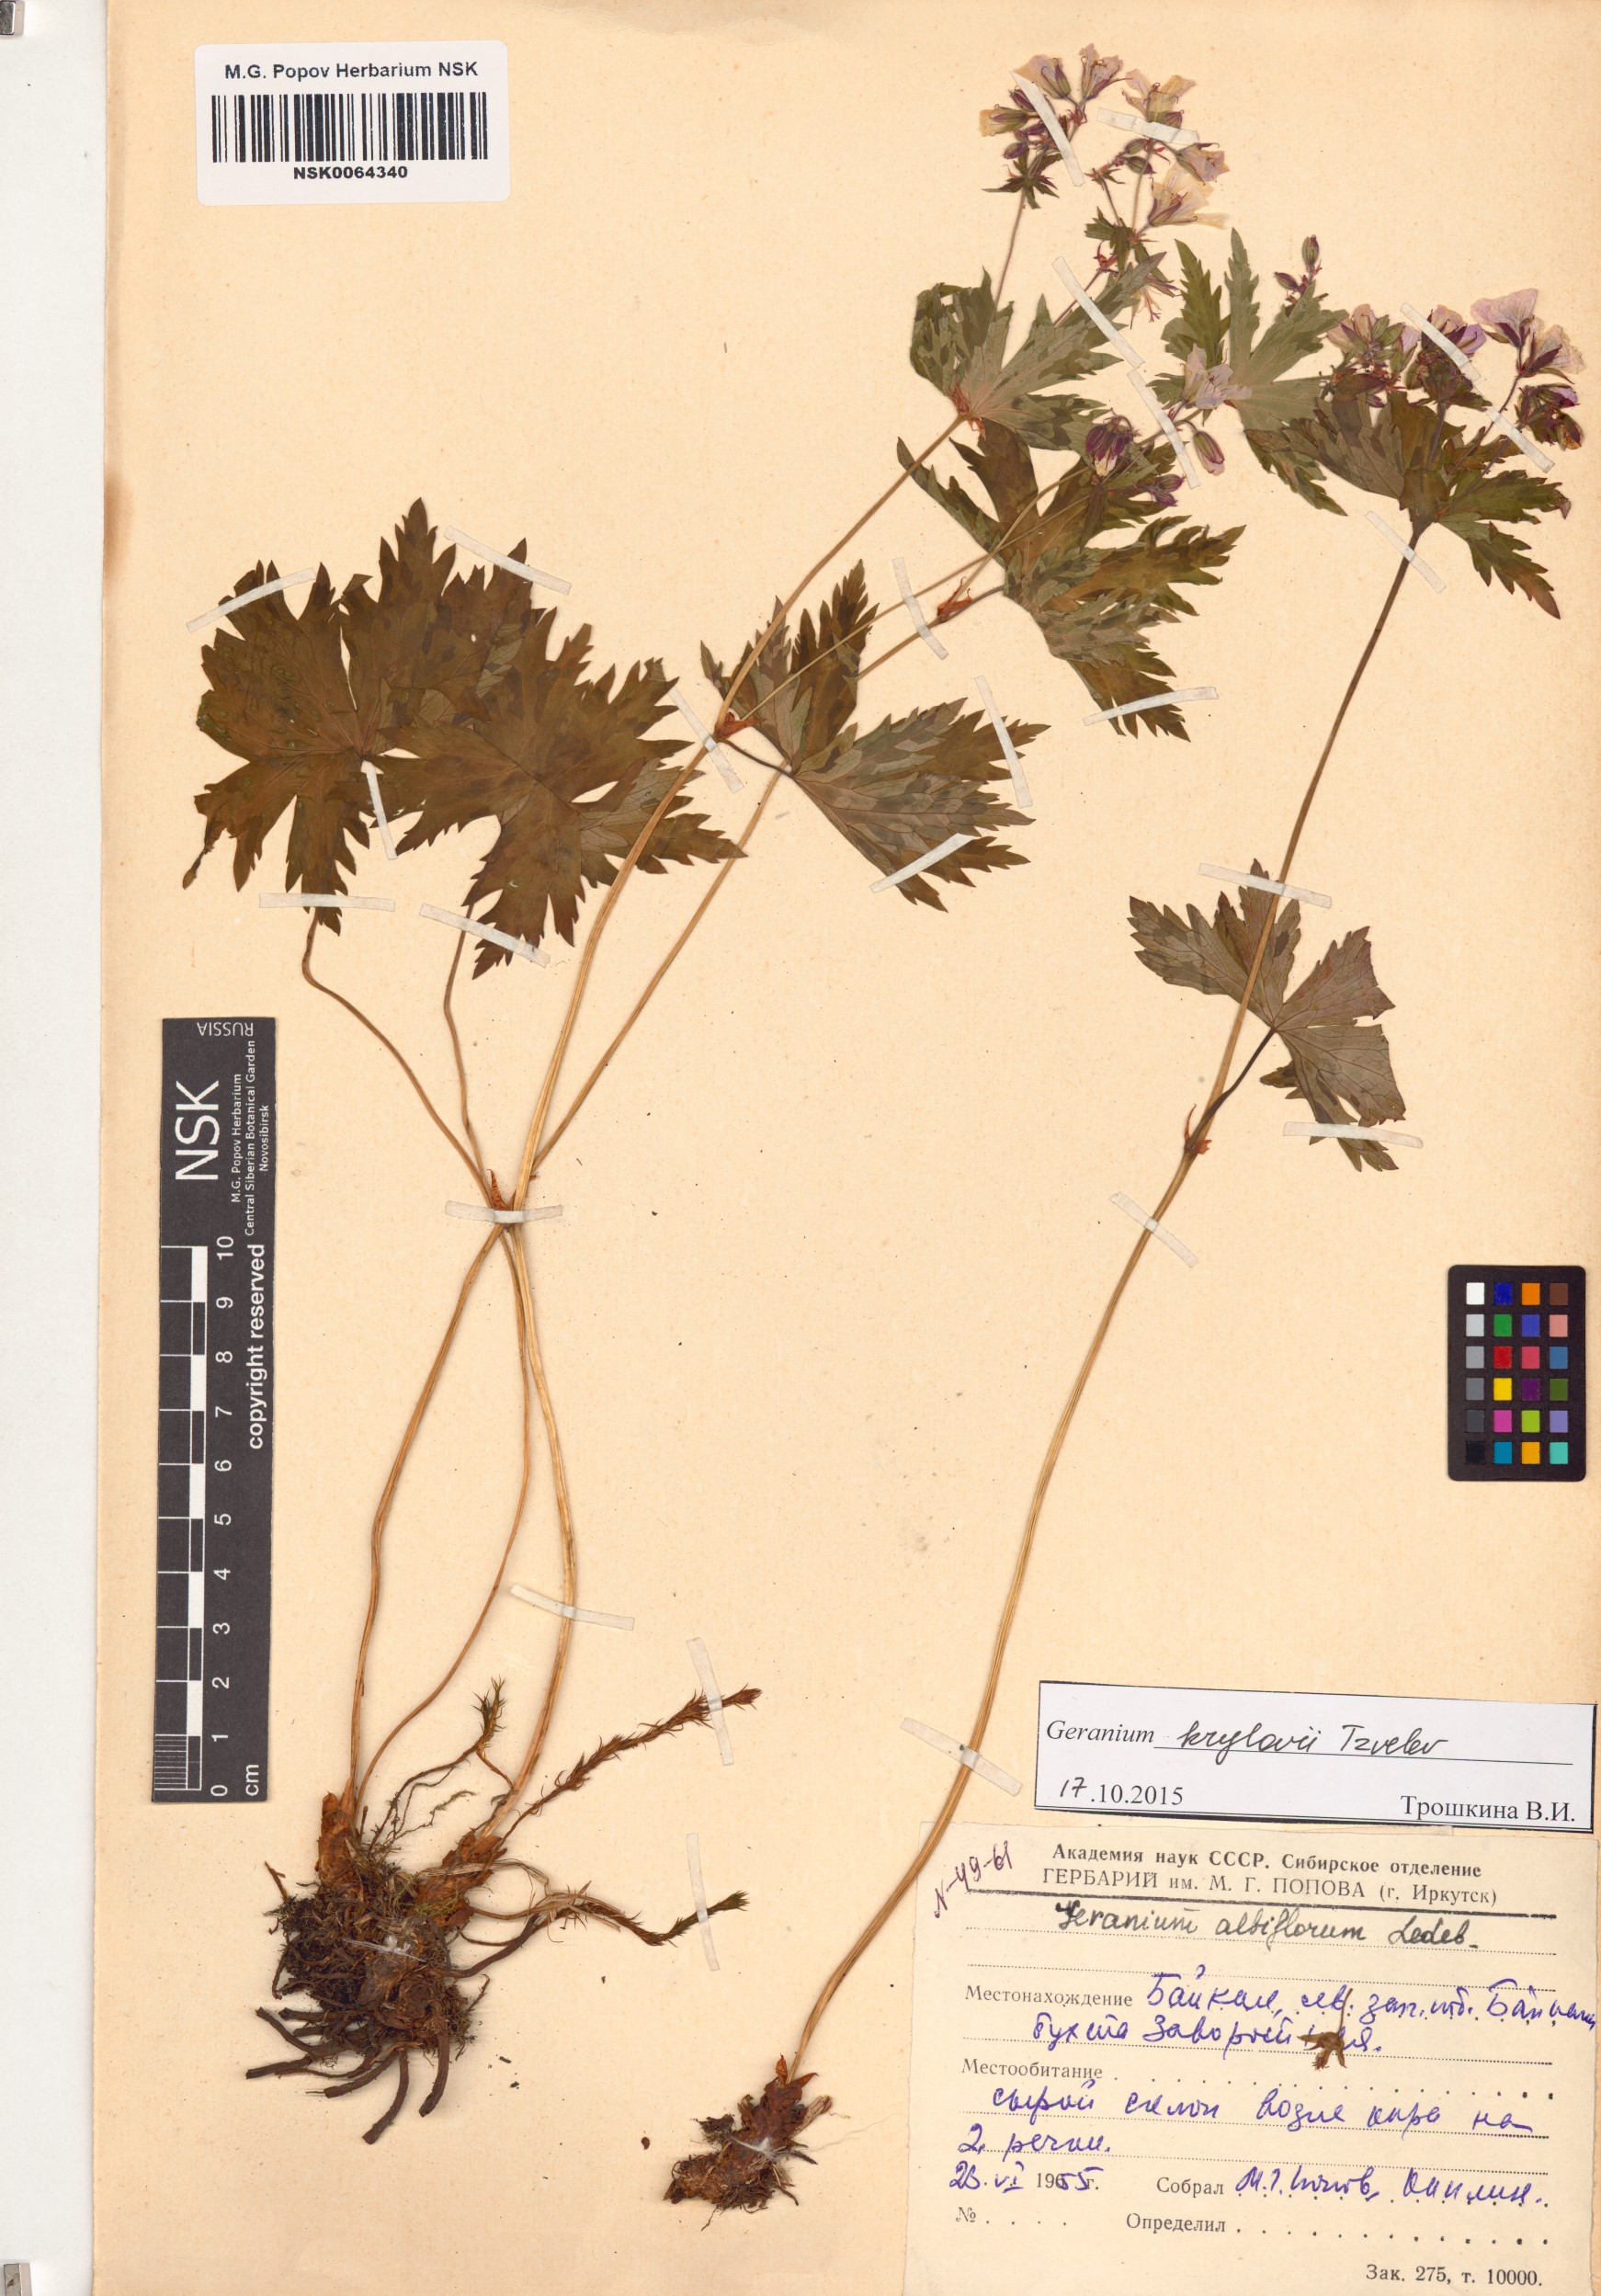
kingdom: Plantae
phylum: Tracheophyta
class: Magnoliopsida
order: Geraniales
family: Geraniaceae
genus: Geranium
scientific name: Geranium sylvaticum
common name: Wood crane's-bill
